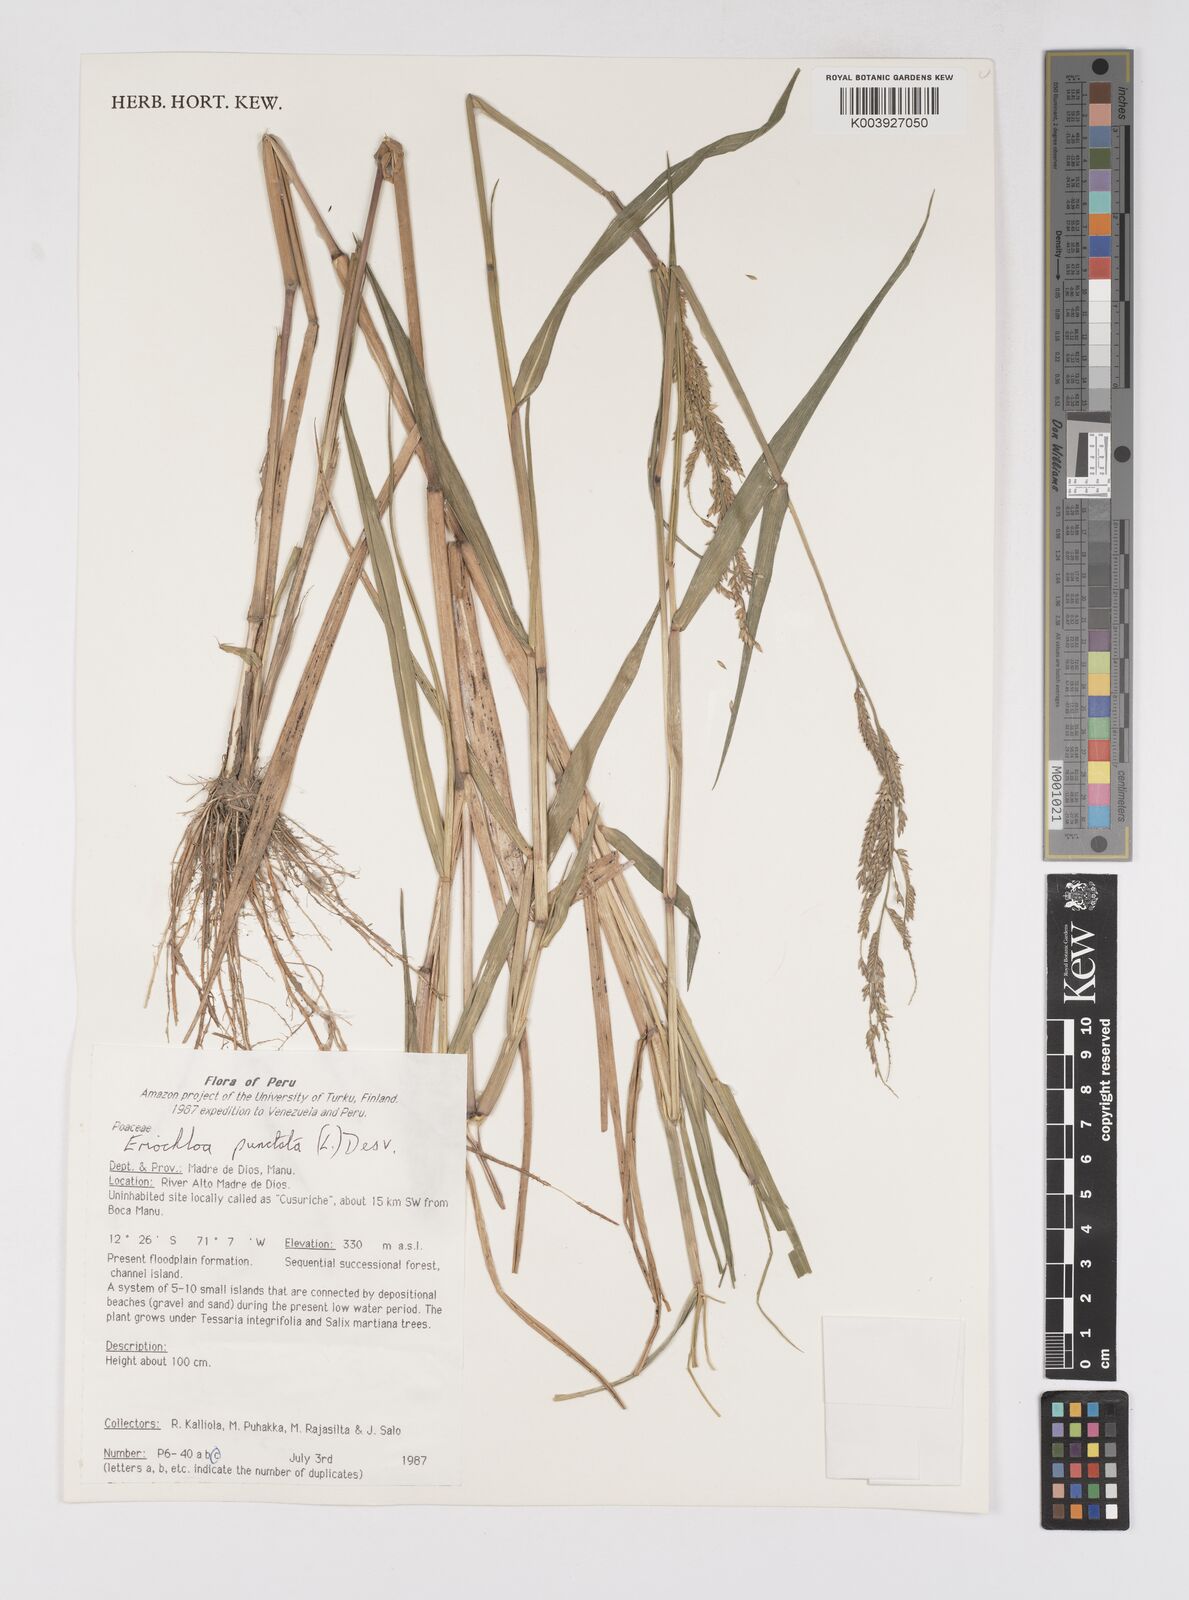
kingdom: Plantae
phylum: Tracheophyta
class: Liliopsida
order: Poales
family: Poaceae
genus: Eriochloa
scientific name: Eriochloa punctata
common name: Louisiana cupgrass
